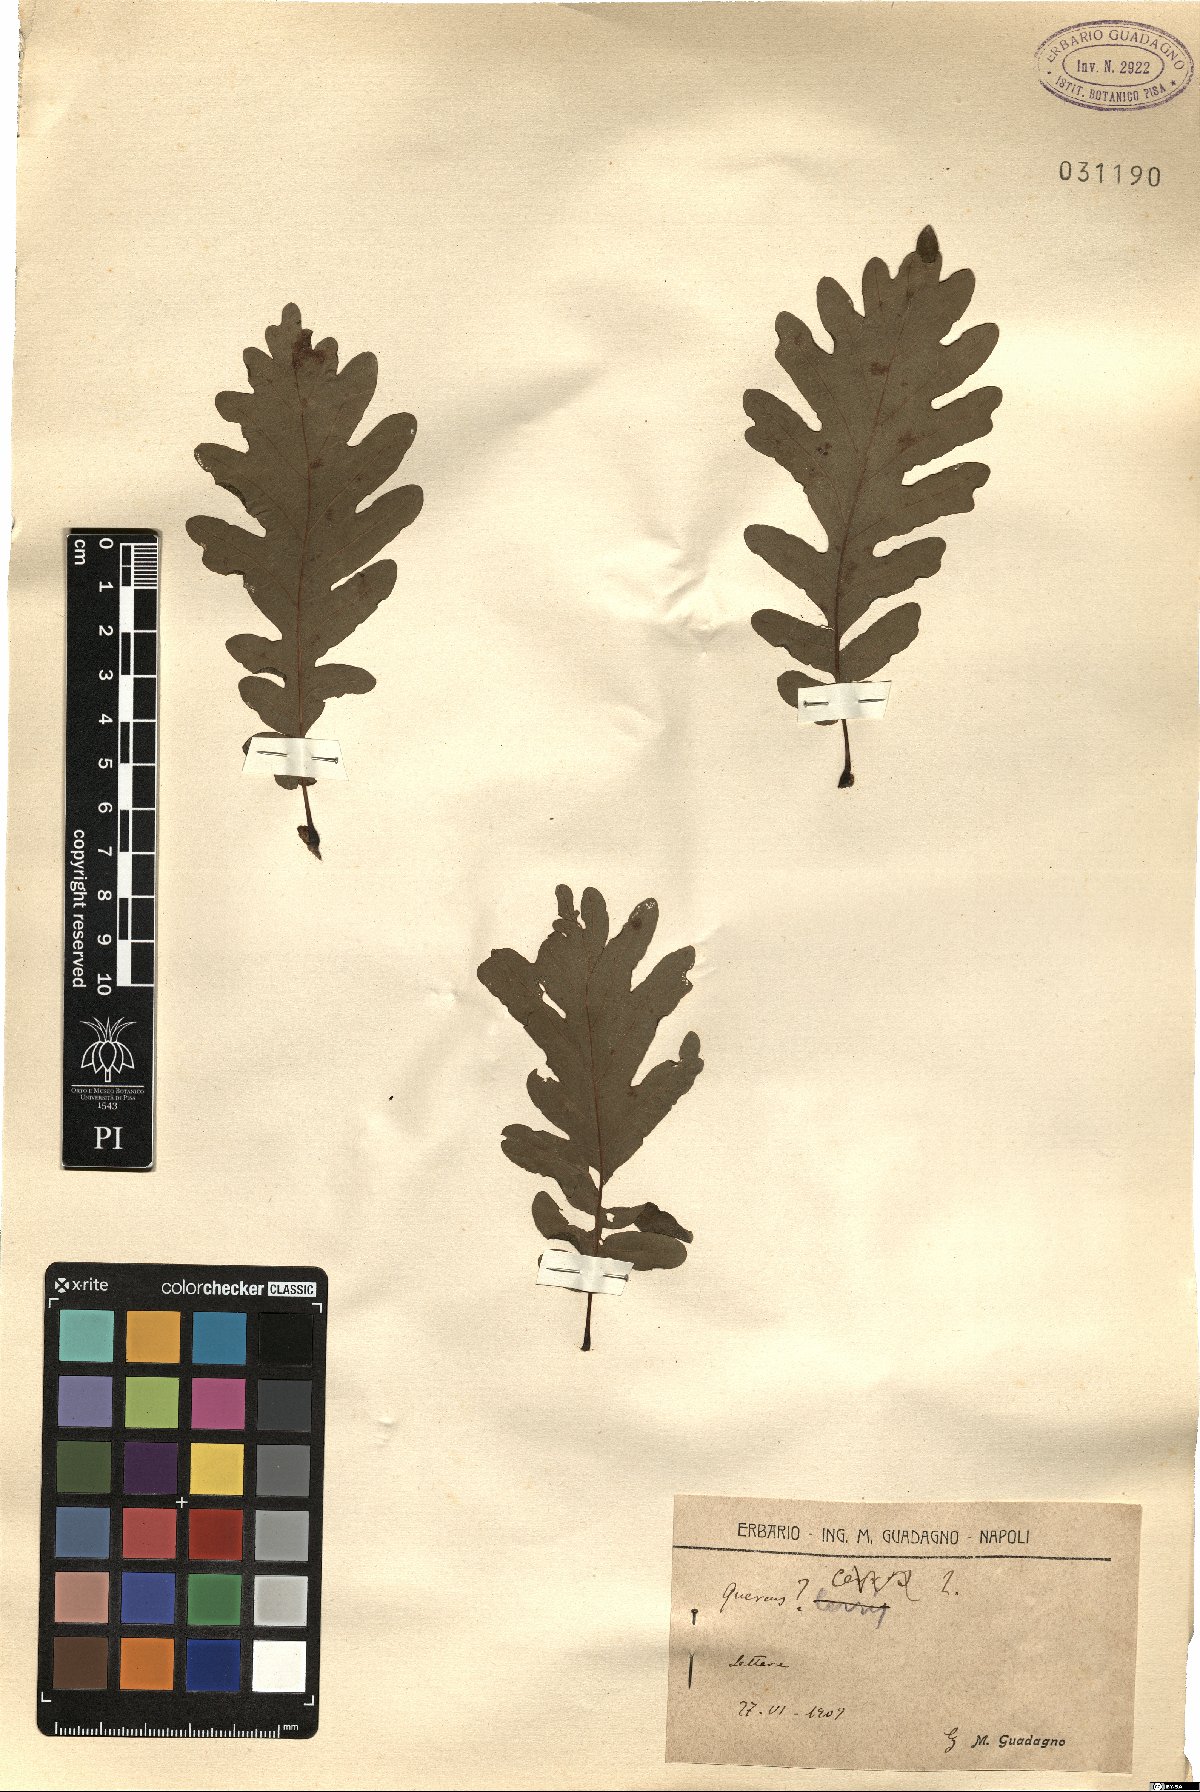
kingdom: Plantae
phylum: Tracheophyta
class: Magnoliopsida
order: Fagales
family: Fagaceae
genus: Quercus
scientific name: Quercus
